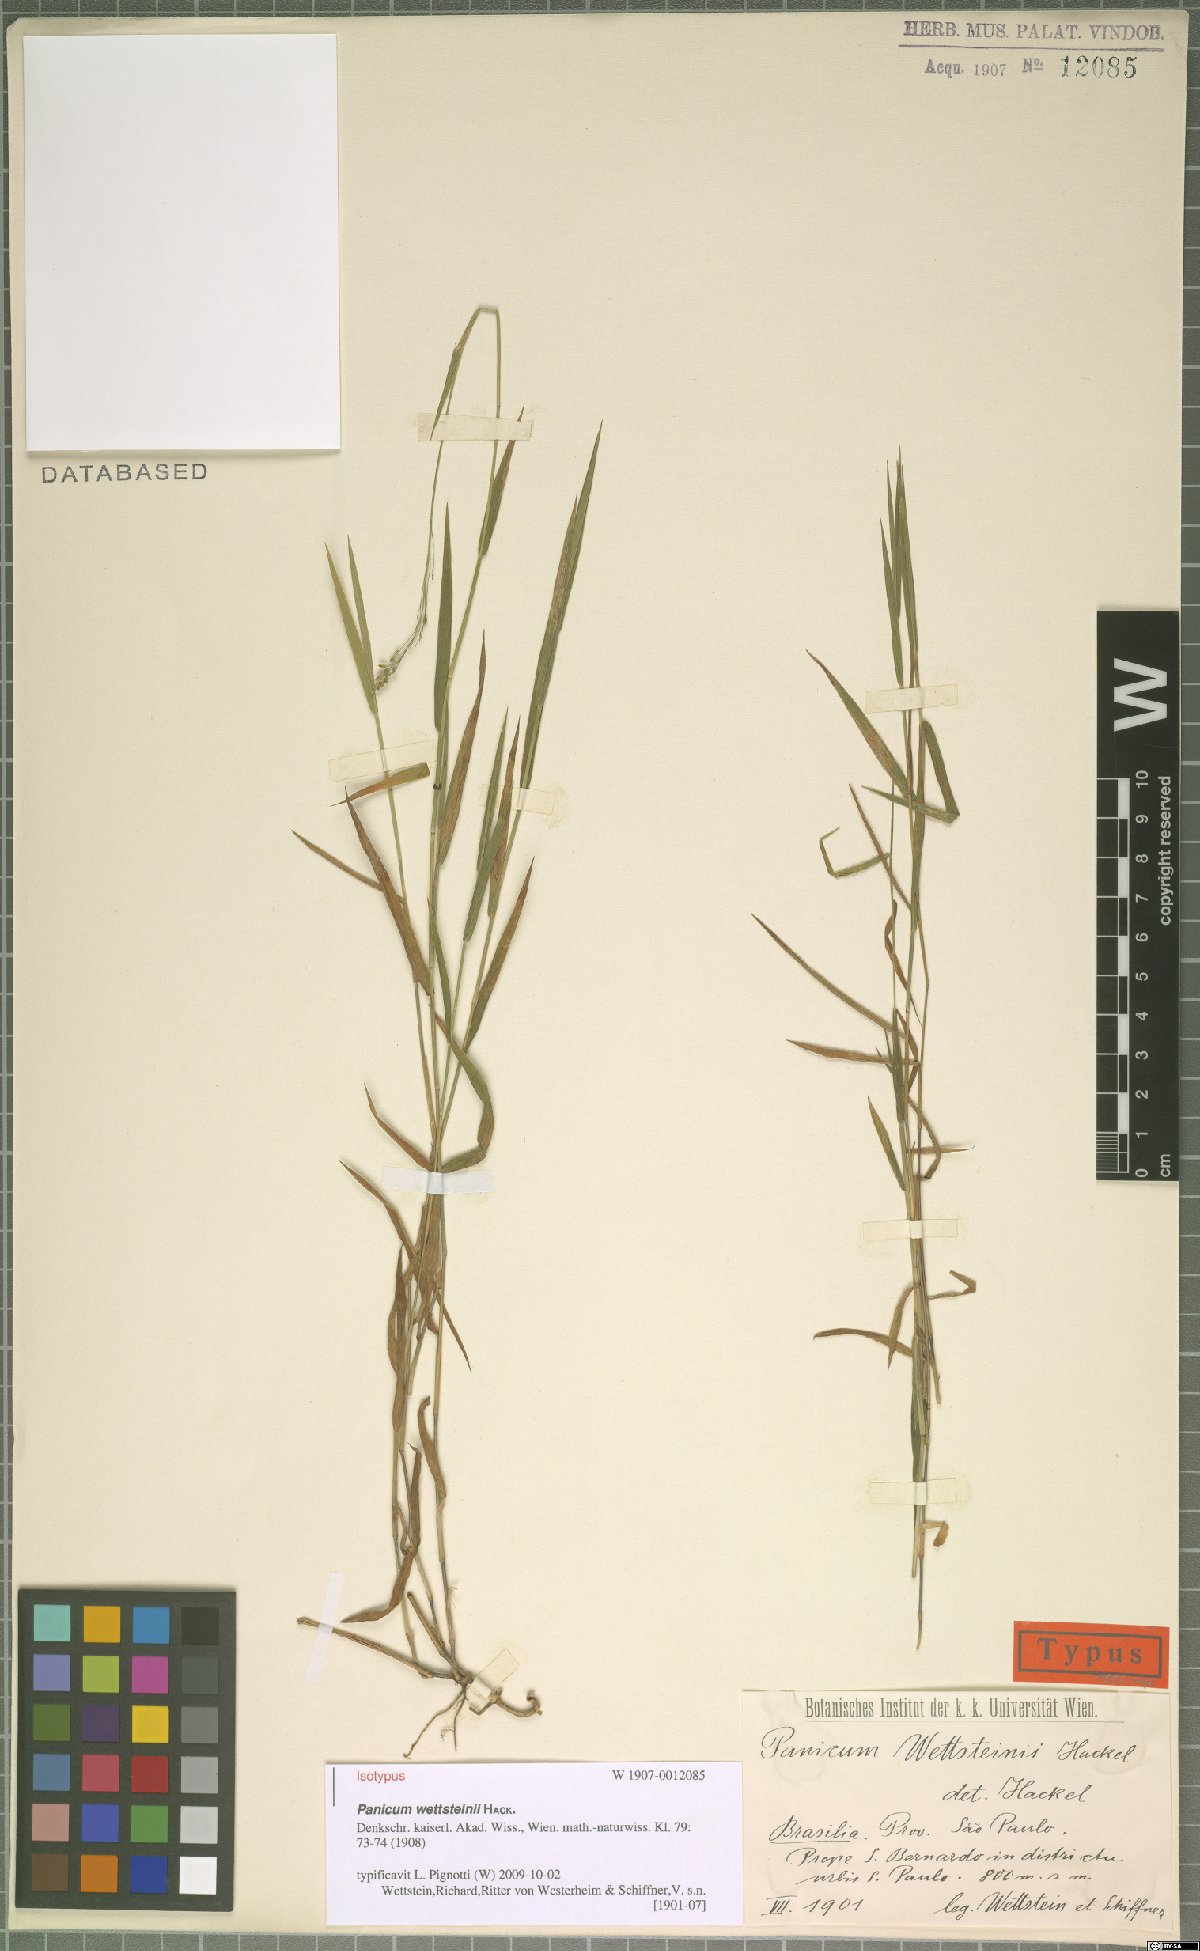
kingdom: Plantae
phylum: Tracheophyta
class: Liliopsida
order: Poales
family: Poaceae
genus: Trichanthecium
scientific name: Trichanthecium wettsteinii
